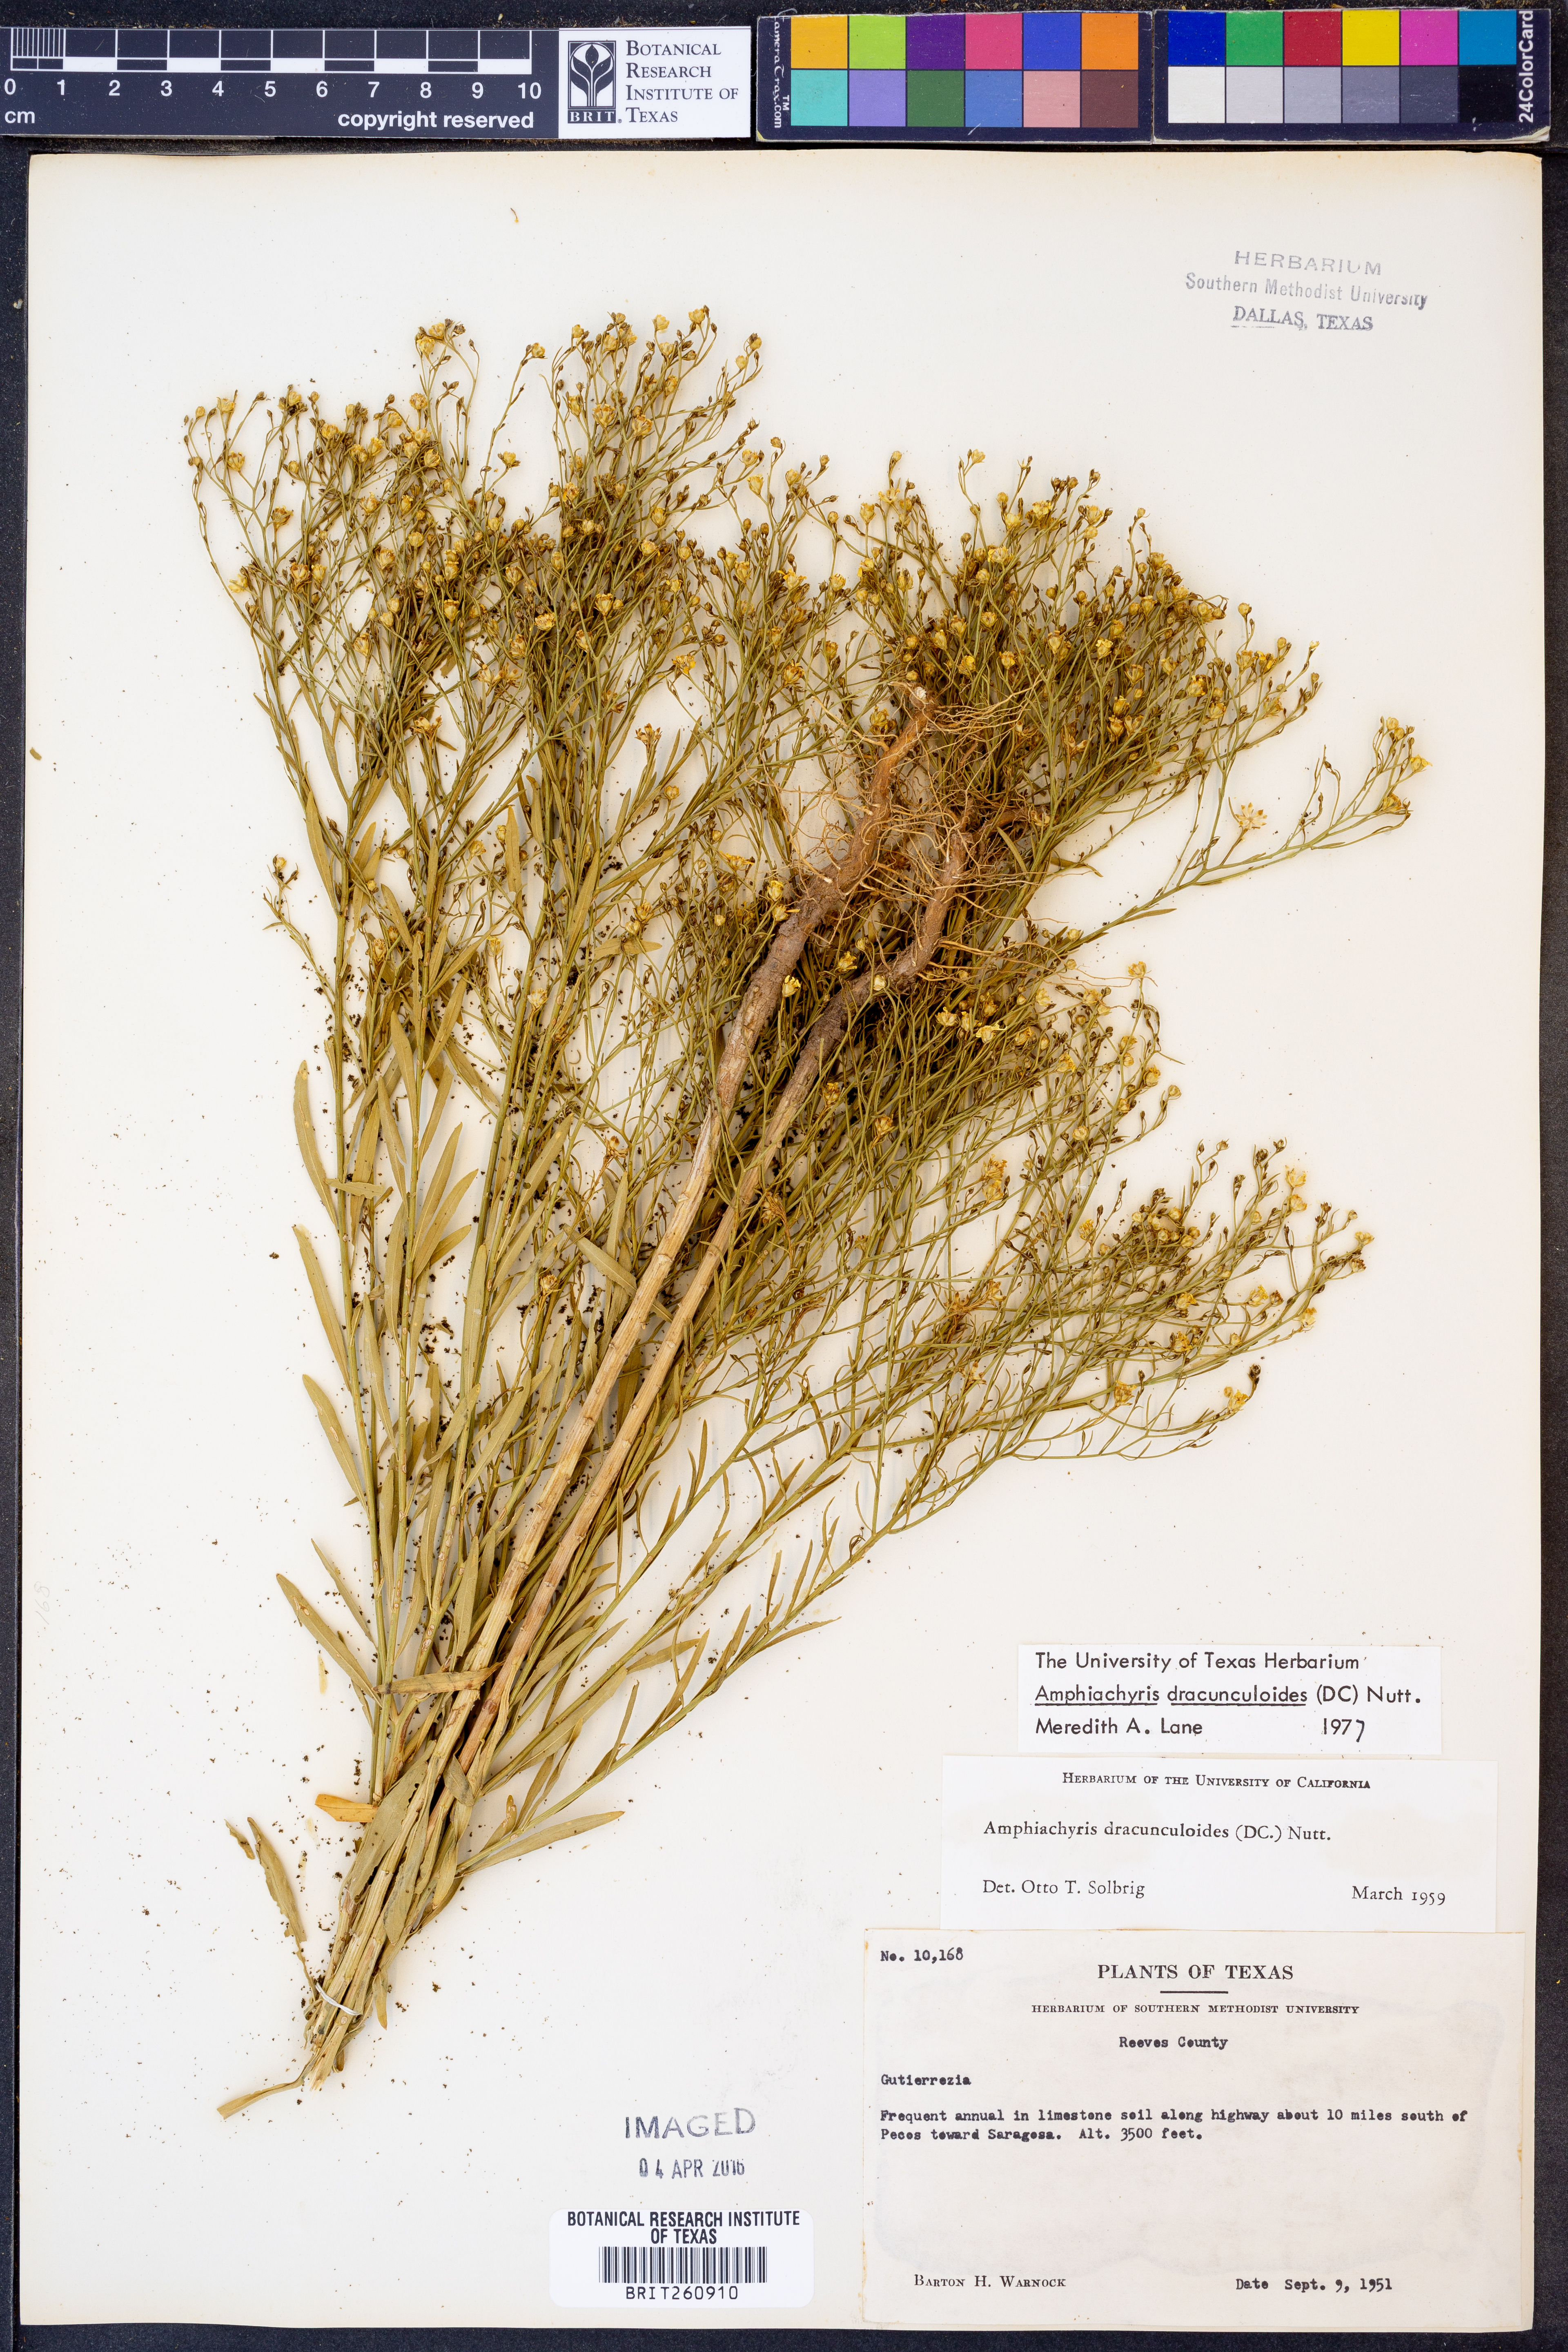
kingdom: Plantae
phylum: Tracheophyta
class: Magnoliopsida
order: Asterales
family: Asteraceae
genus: Amphiachyris
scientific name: Amphiachyris dracunculoides
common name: Broomweed
